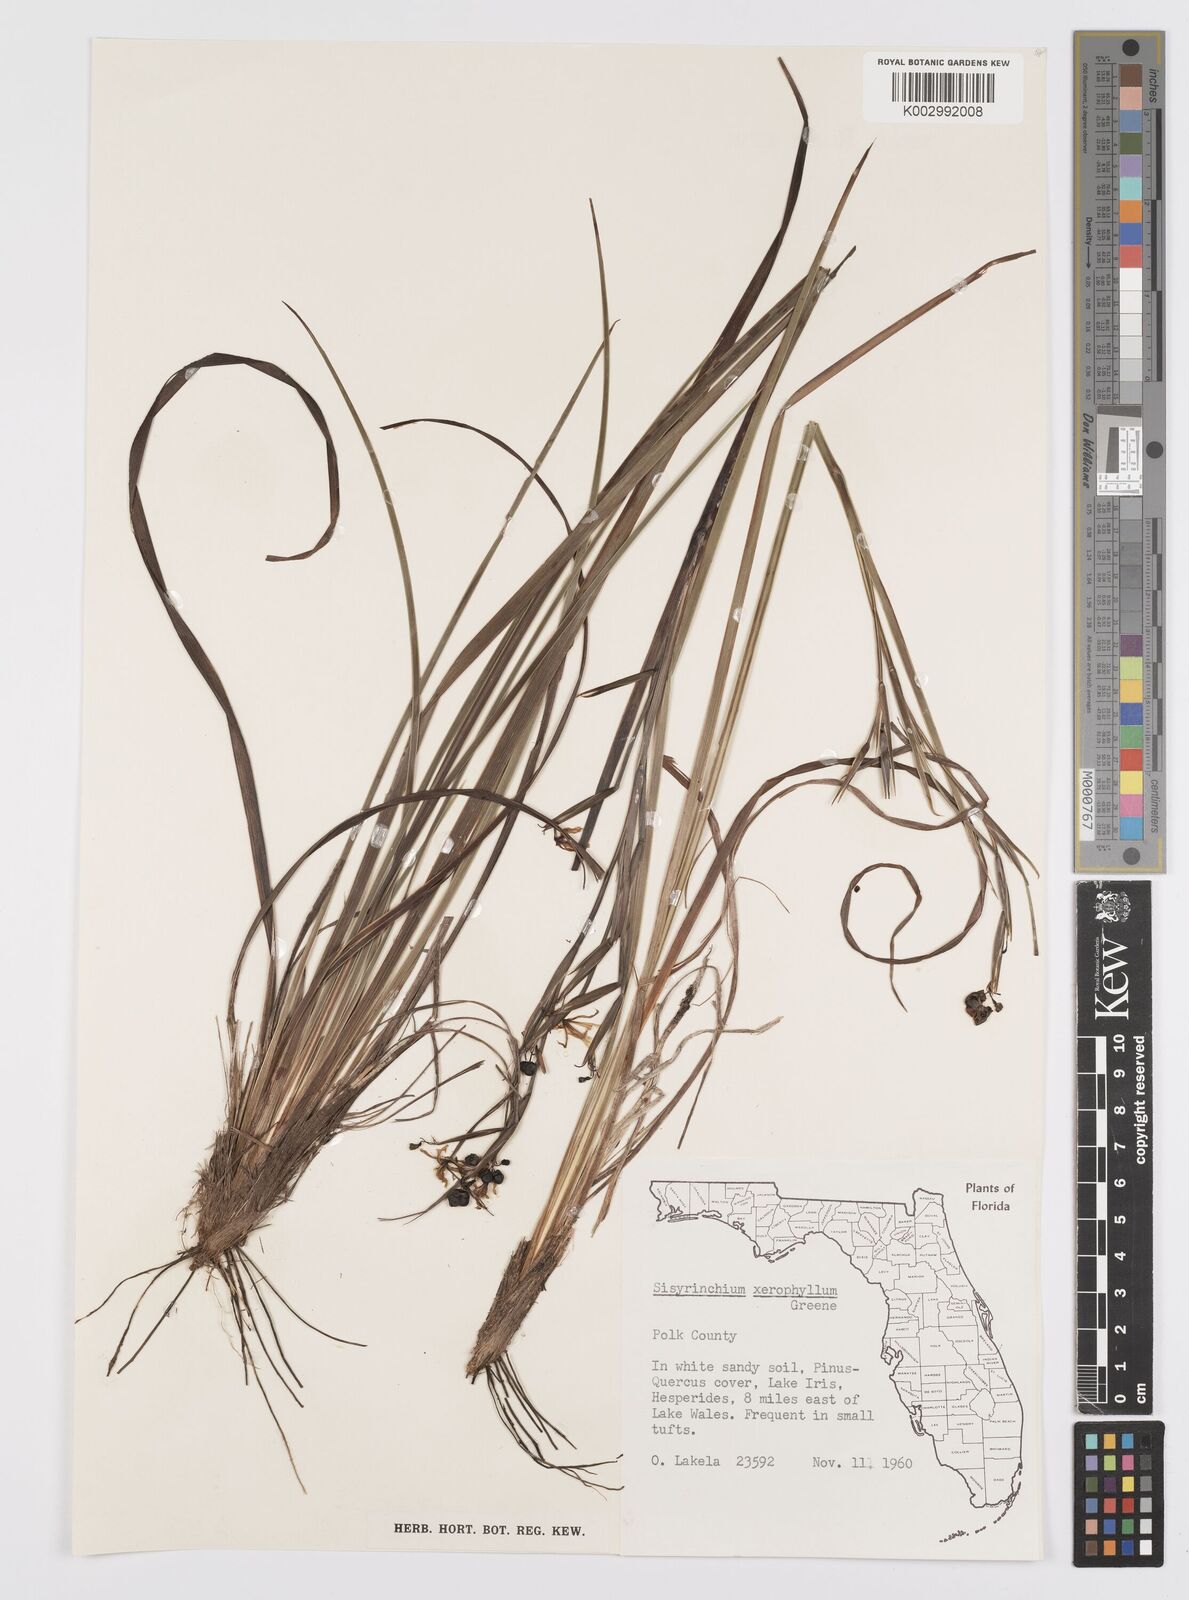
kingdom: Plantae
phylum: Tracheophyta
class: Liliopsida
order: Asparagales
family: Iridaceae
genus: Sisyrinchium
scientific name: Sisyrinchium xerophyllum
